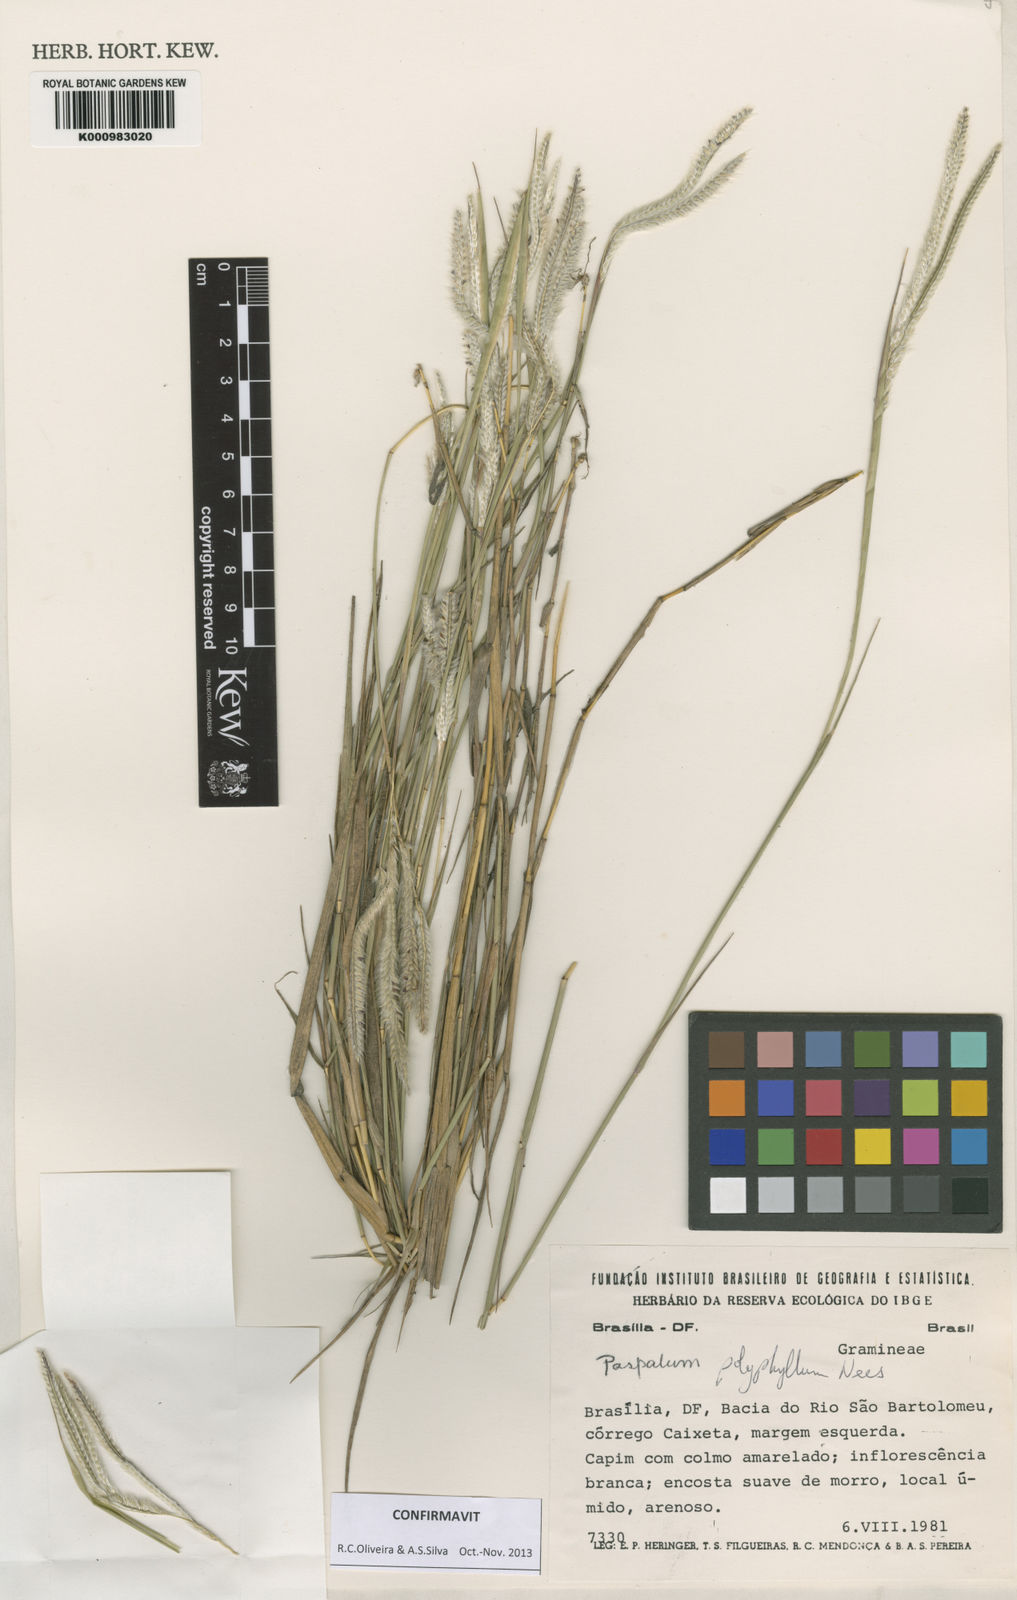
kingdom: Plantae
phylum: Tracheophyta
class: Liliopsida
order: Poales
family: Poaceae
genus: Paspalum
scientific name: Paspalum
